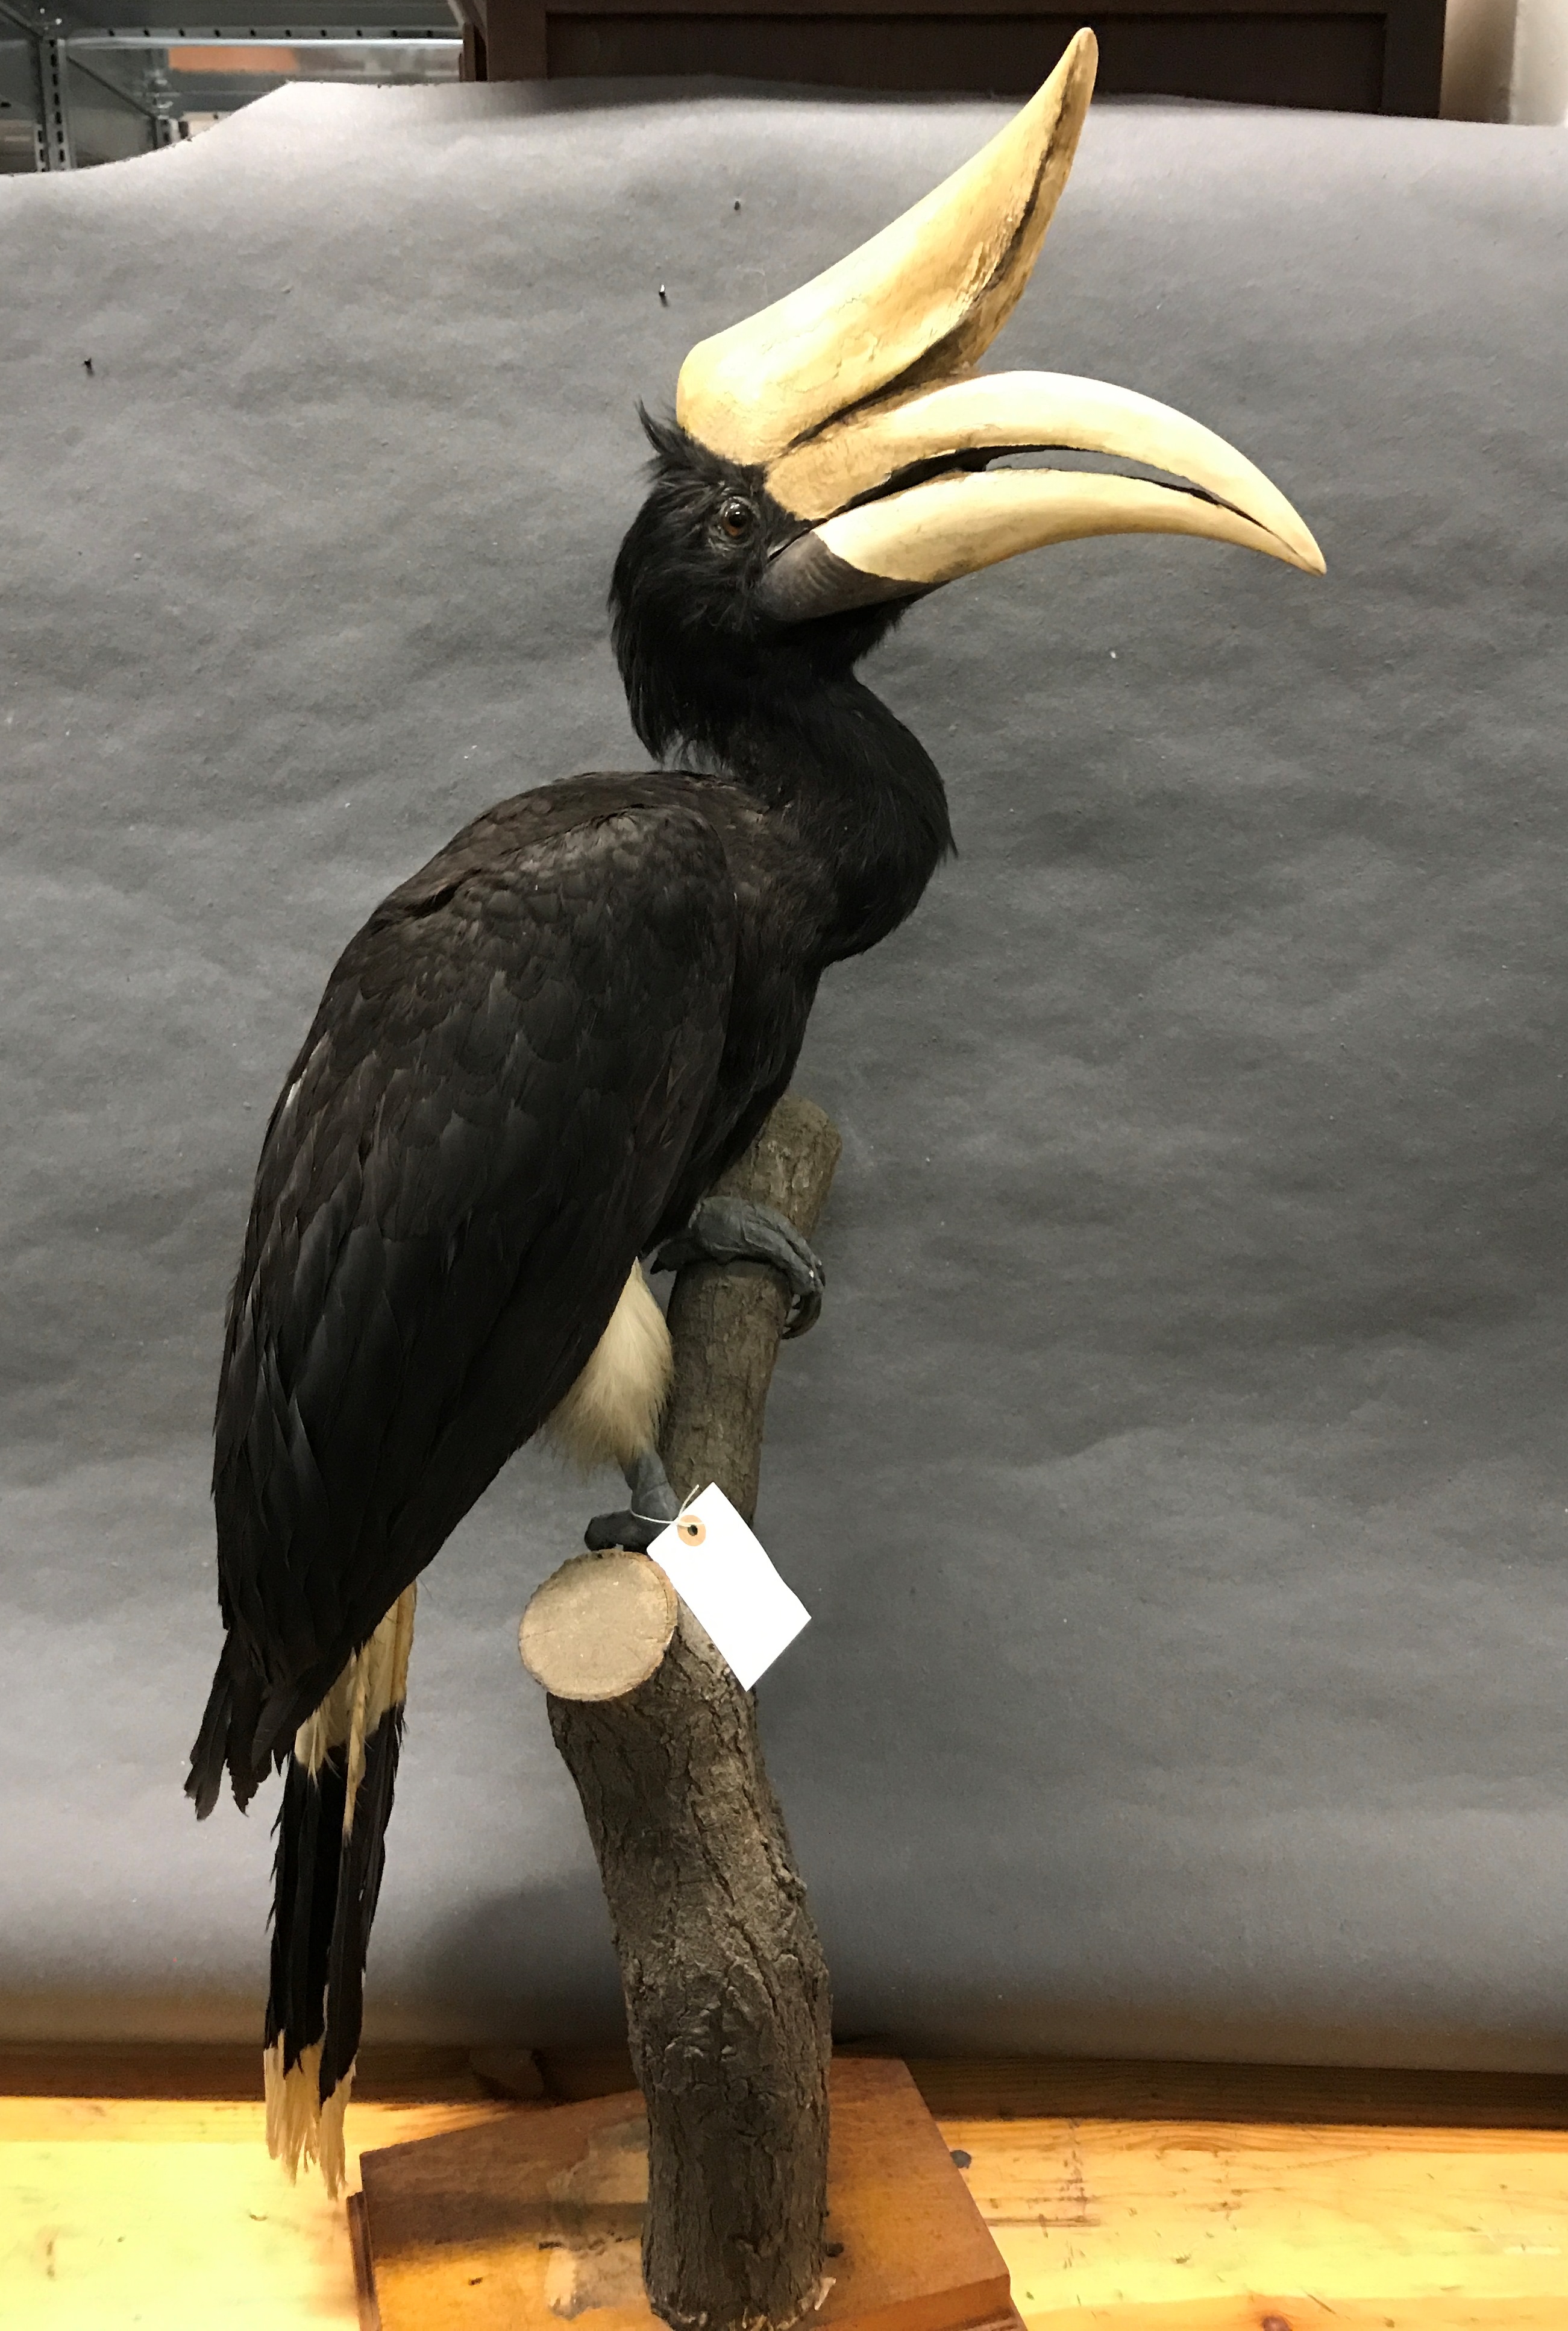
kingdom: Animalia
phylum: Chordata
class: Aves
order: Bucerotiformes
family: Bucerotidae
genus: Buceros
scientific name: Buceros rhinoceros
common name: Rhinoceros hornbill
